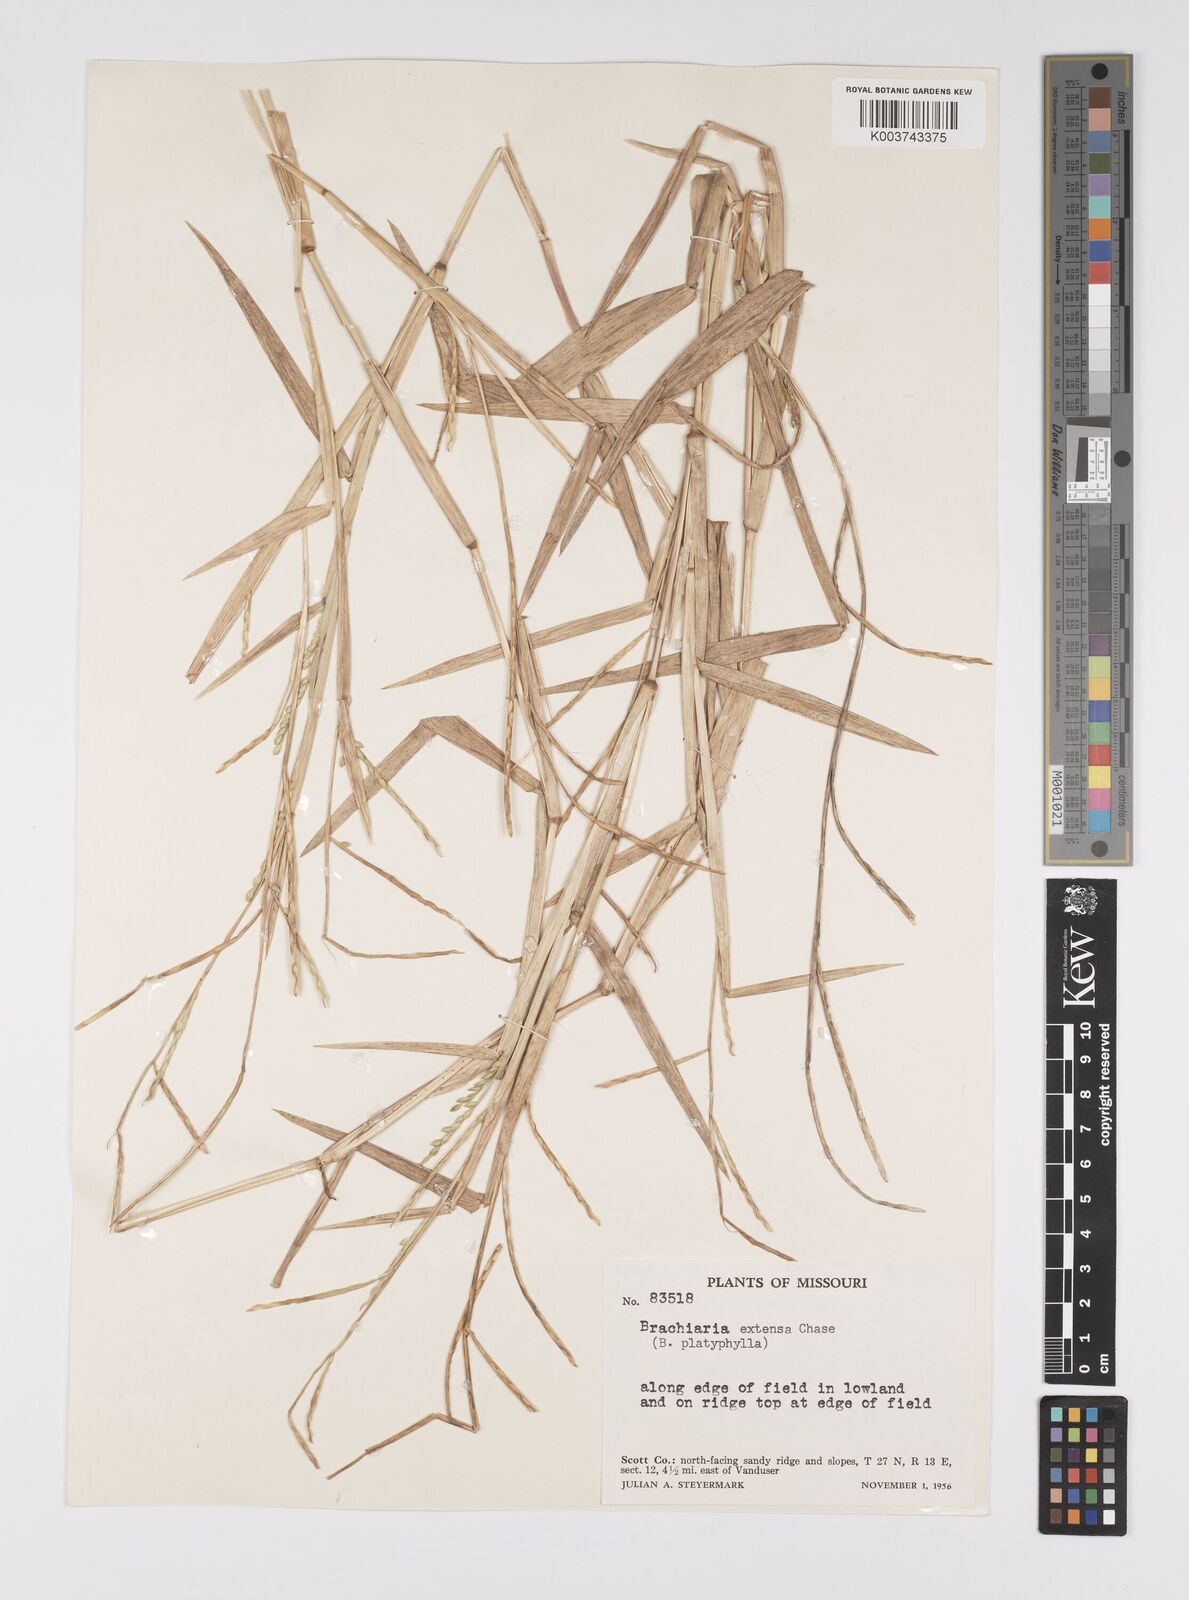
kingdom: Plantae
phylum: Tracheophyta
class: Liliopsida
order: Poales
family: Poaceae
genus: Urochloa
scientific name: Urochloa platyphylla
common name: White para grass
